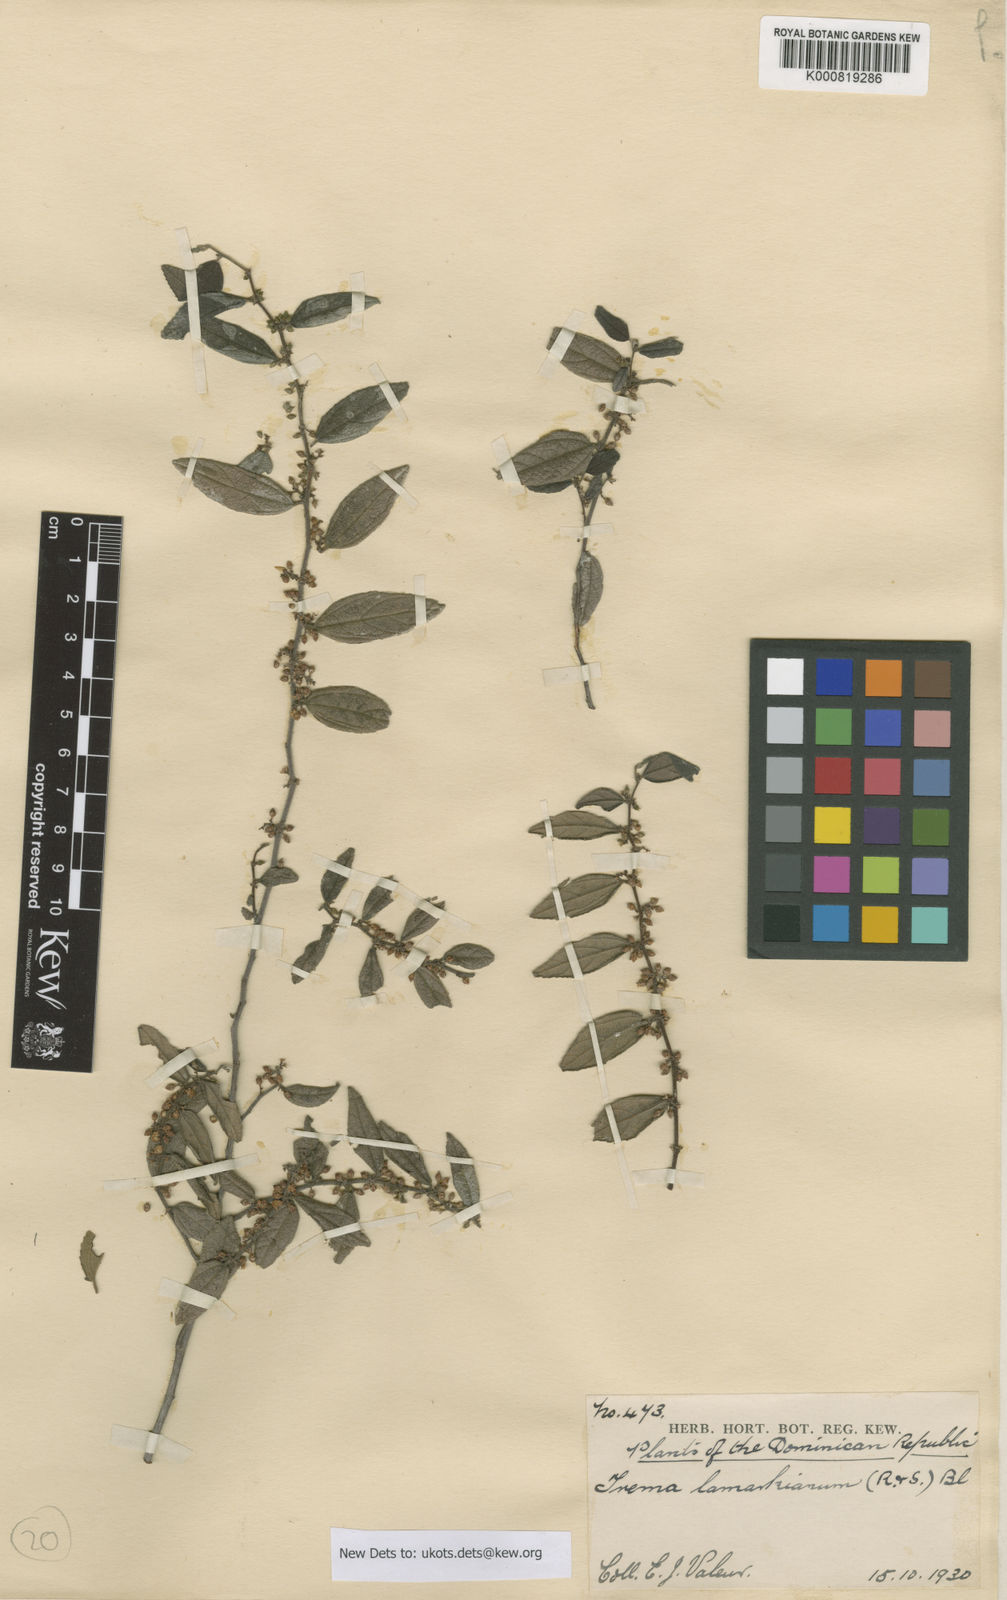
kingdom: Plantae
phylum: Tracheophyta
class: Magnoliopsida
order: Rosales
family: Cannabaceae
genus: Trema
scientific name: Trema lamarckianum
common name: Lamarck's trema
